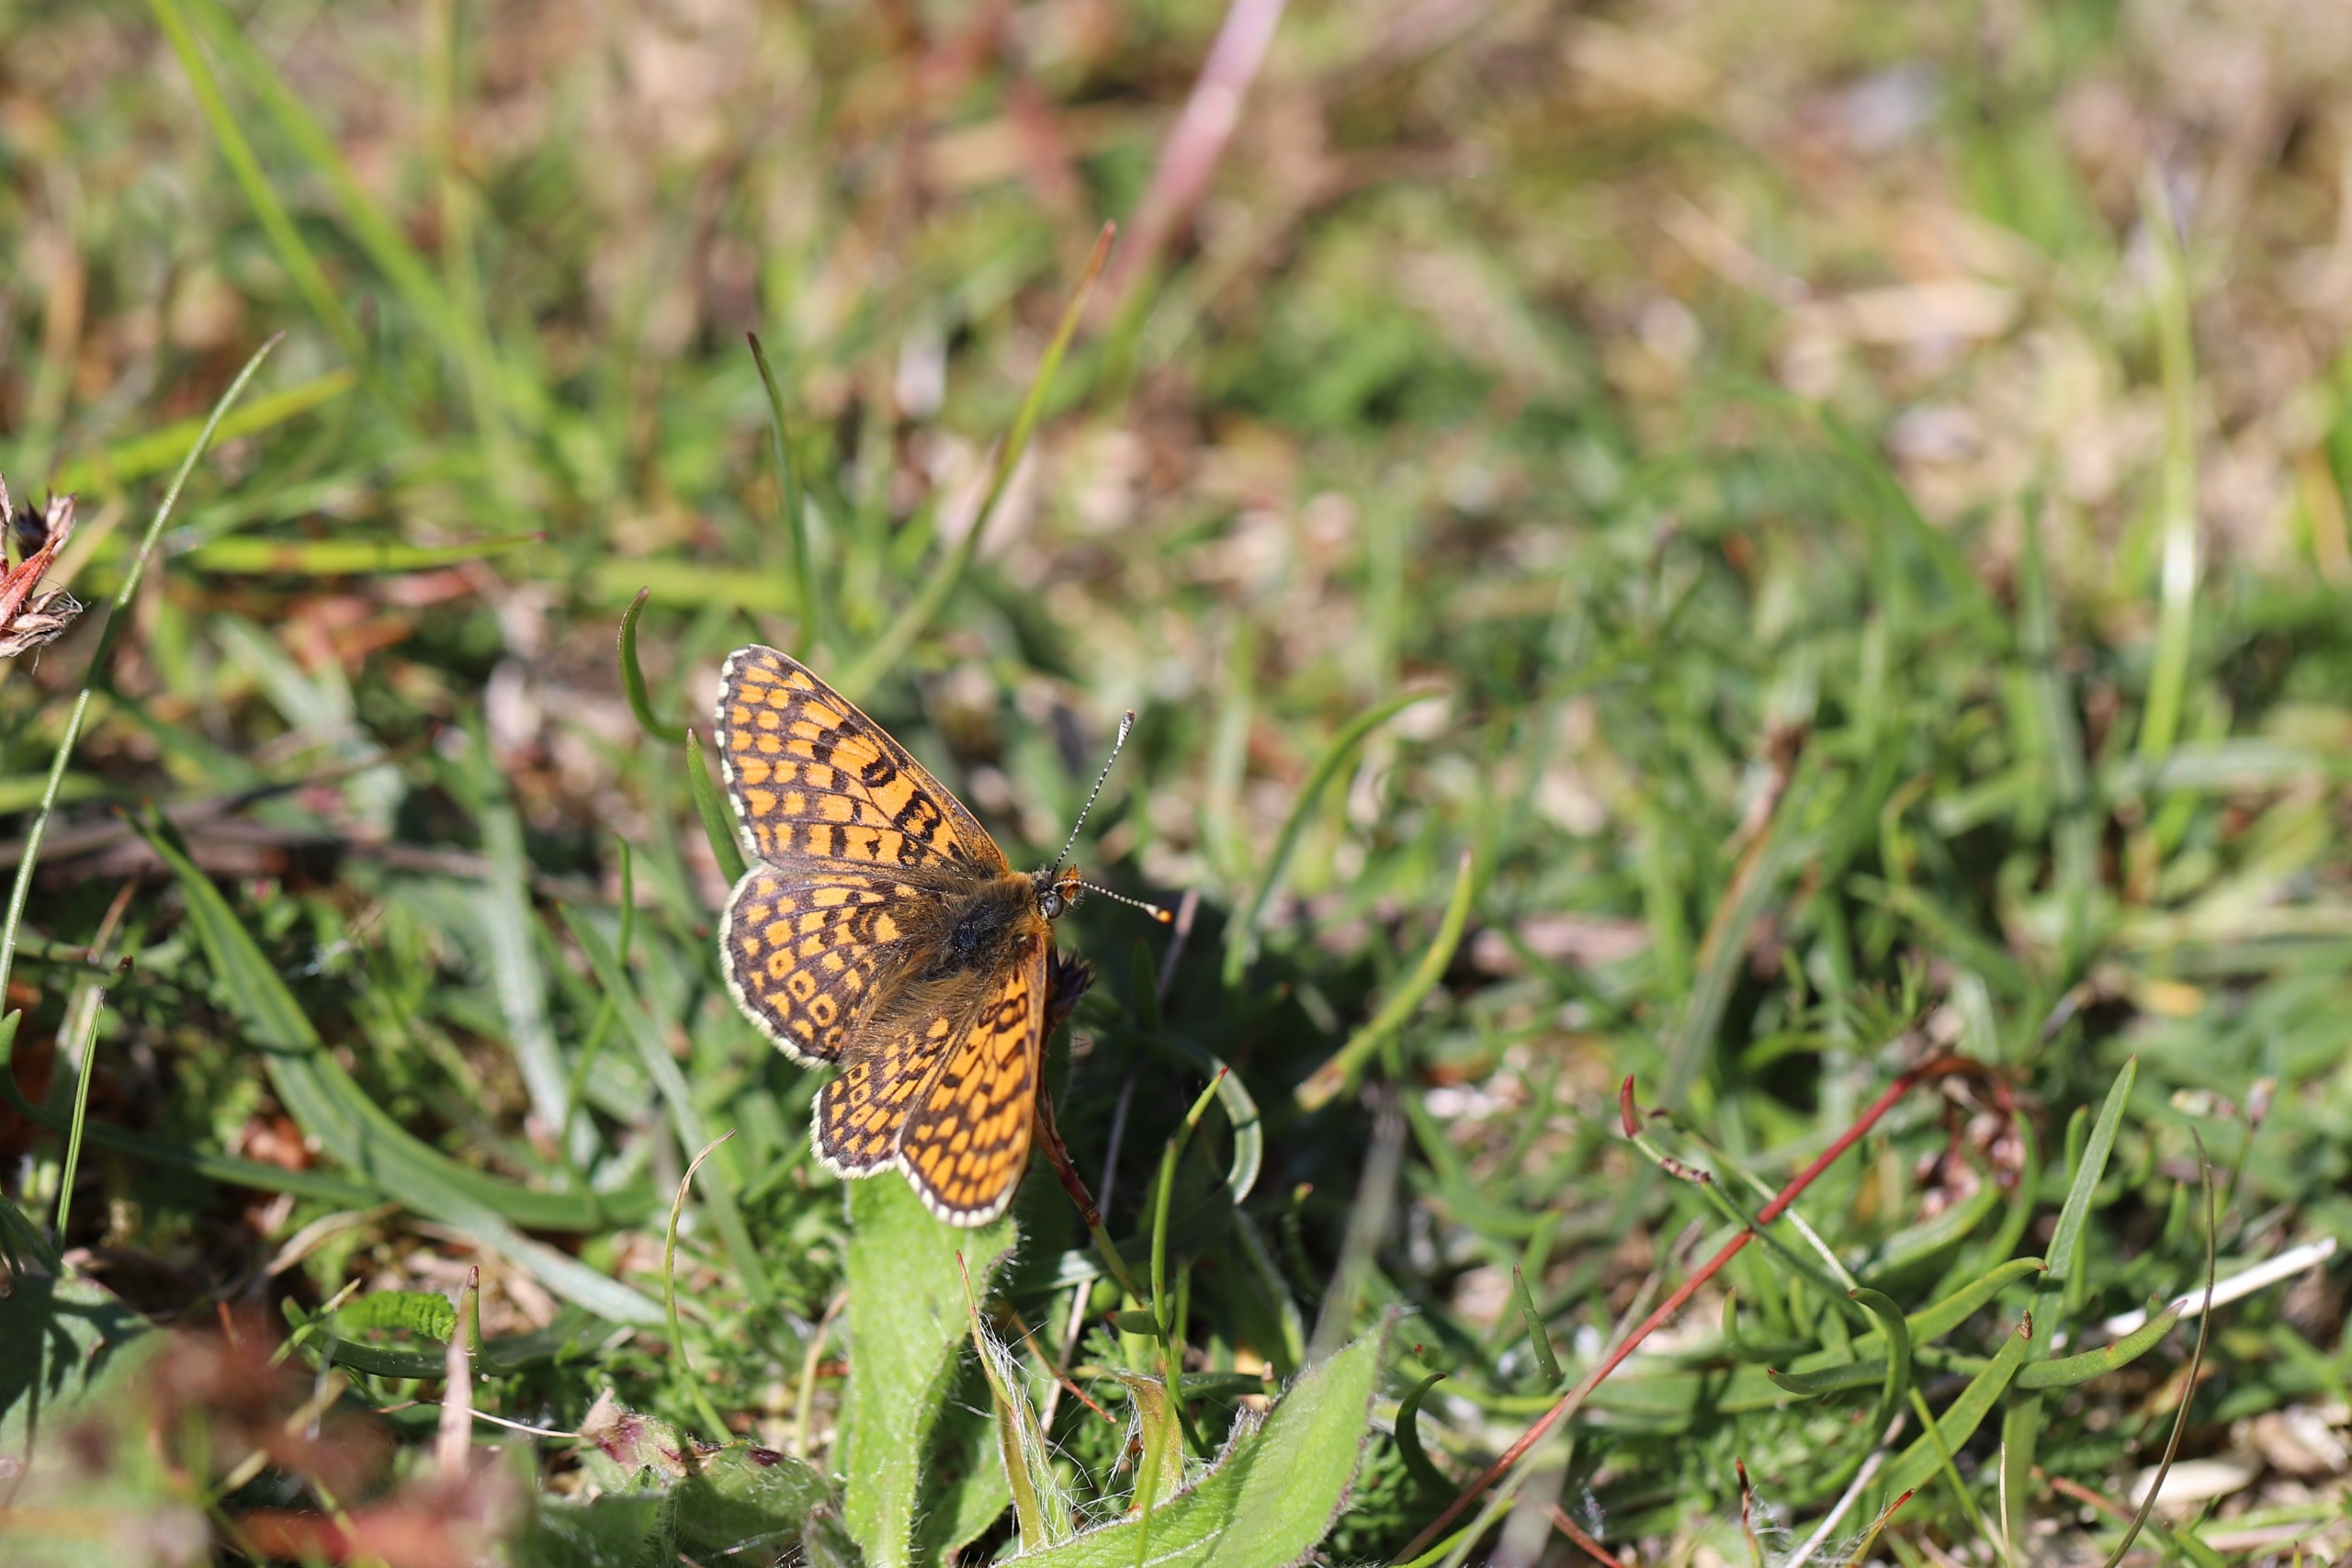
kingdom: Animalia
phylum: Arthropoda
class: Insecta
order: Lepidoptera
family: Nymphalidae
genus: Melitaea
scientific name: Melitaea cinxia
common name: Okkergul pletvinge
